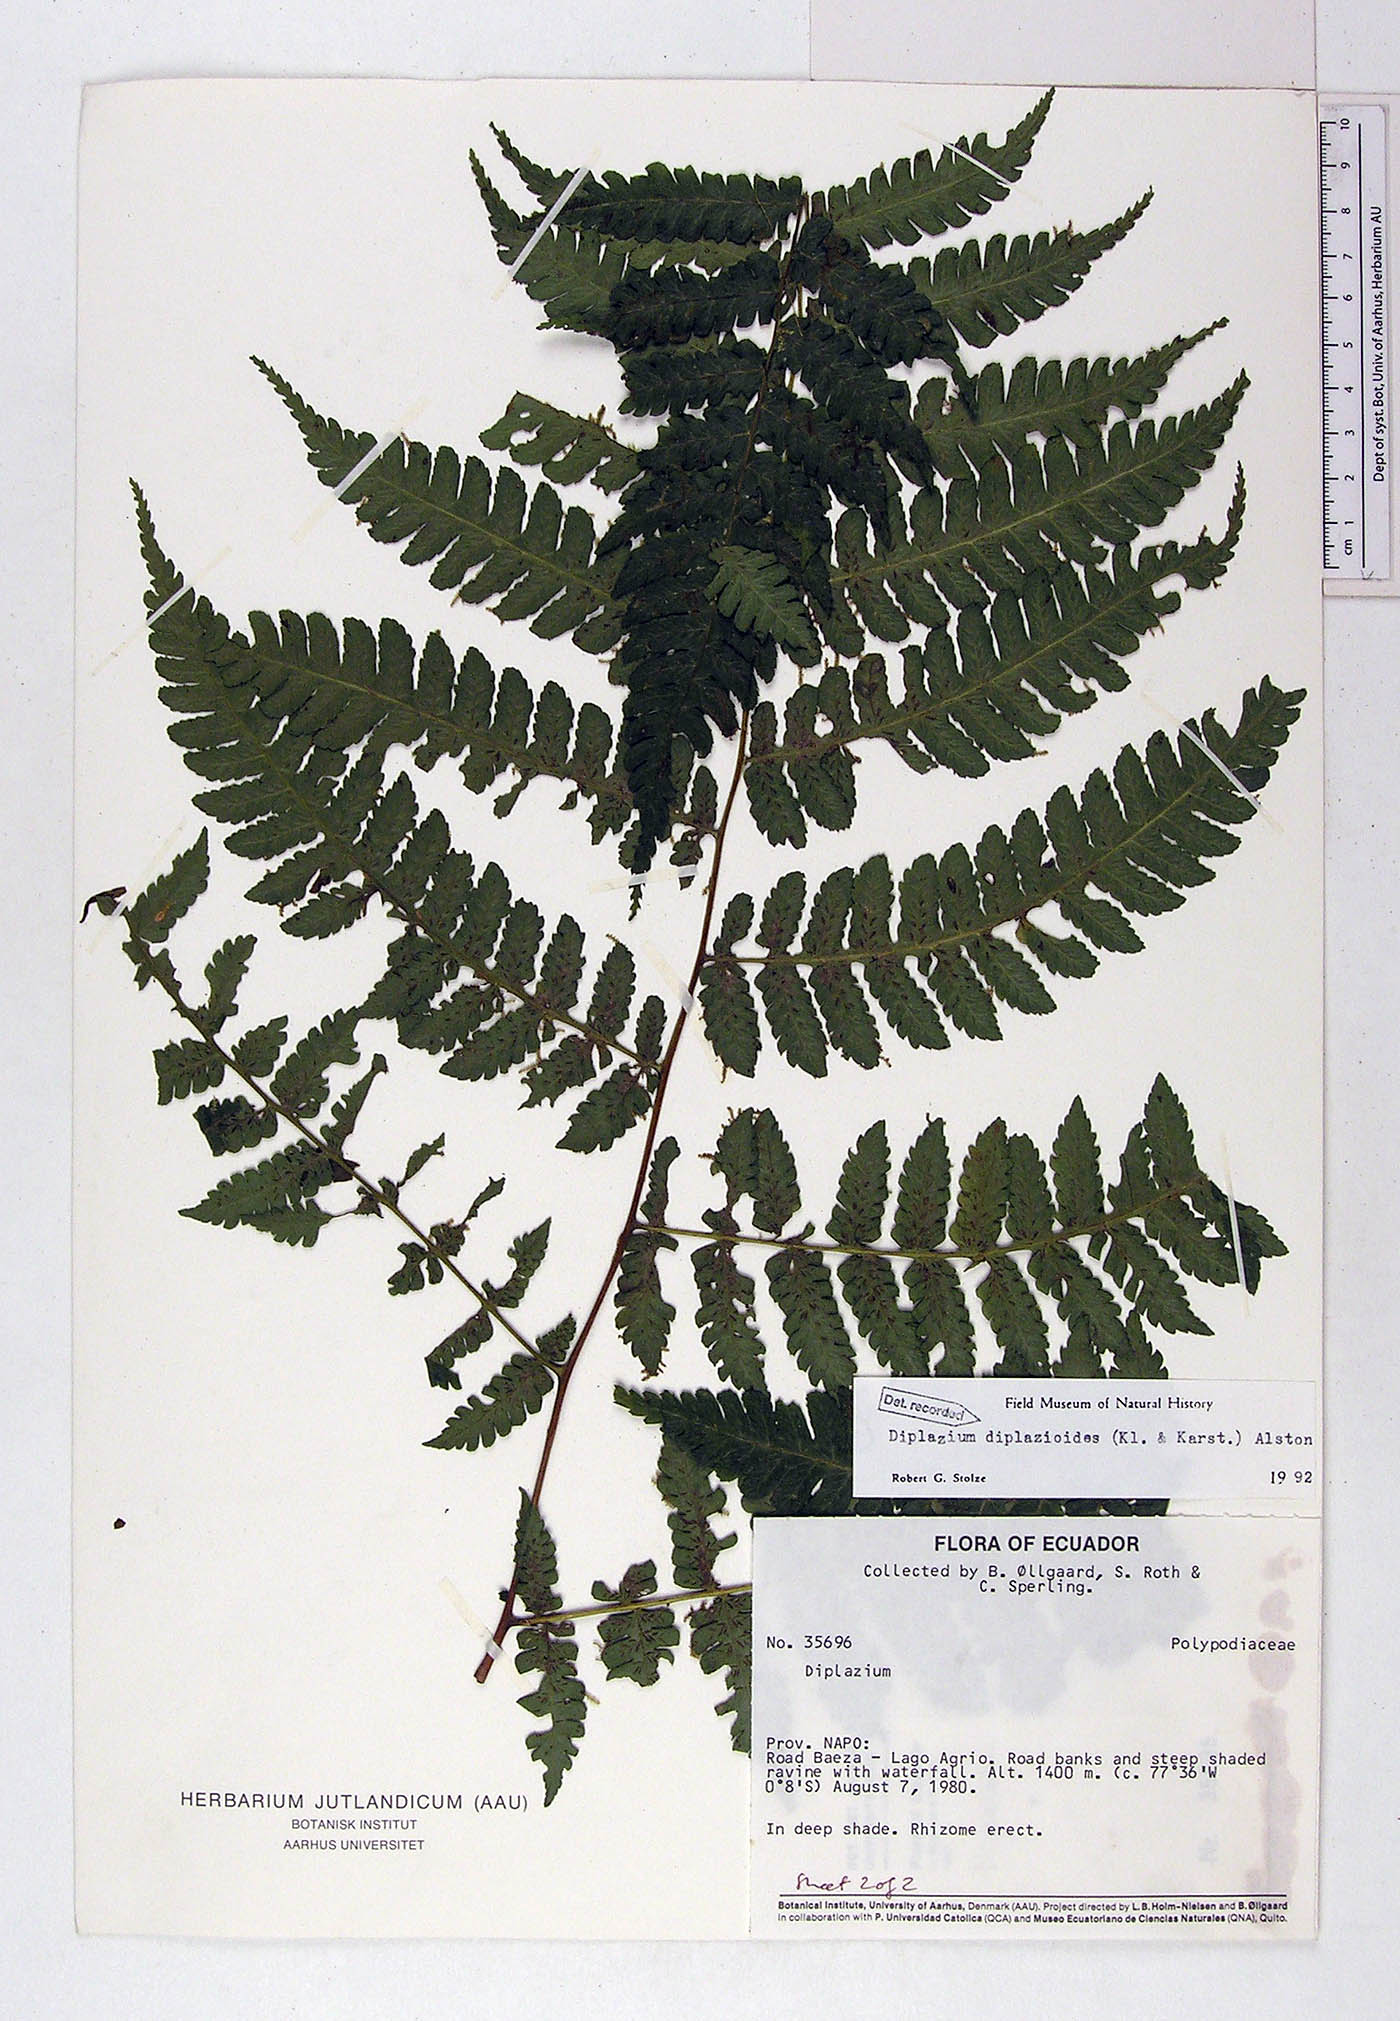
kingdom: Plantae
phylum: Tracheophyta
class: Polypodiopsida
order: Polypodiales
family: Athyriaceae
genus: Diplazium
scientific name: Diplazium diplazioides
